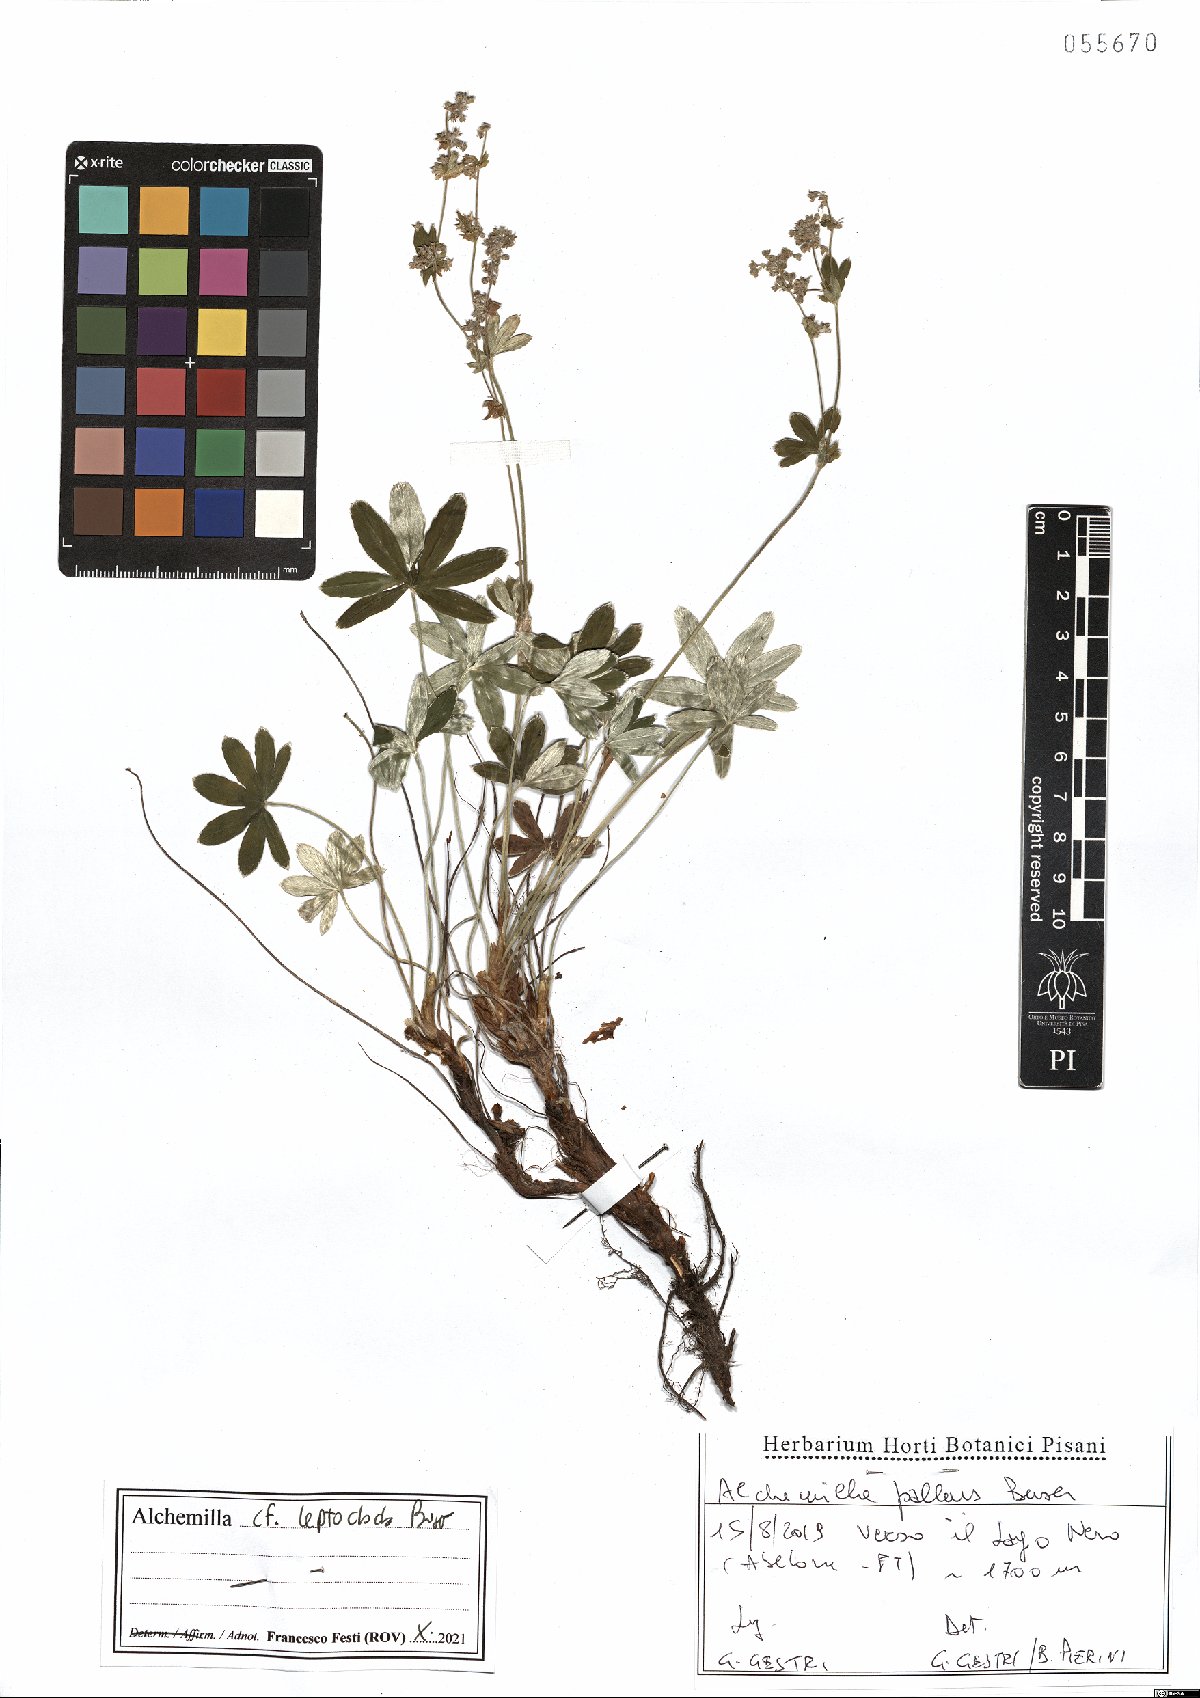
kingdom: Plantae
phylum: Tracheophyta
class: Magnoliopsida
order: Rosales
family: Rosaceae
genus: Alchemilla
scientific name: Alchemilla leptoclada
